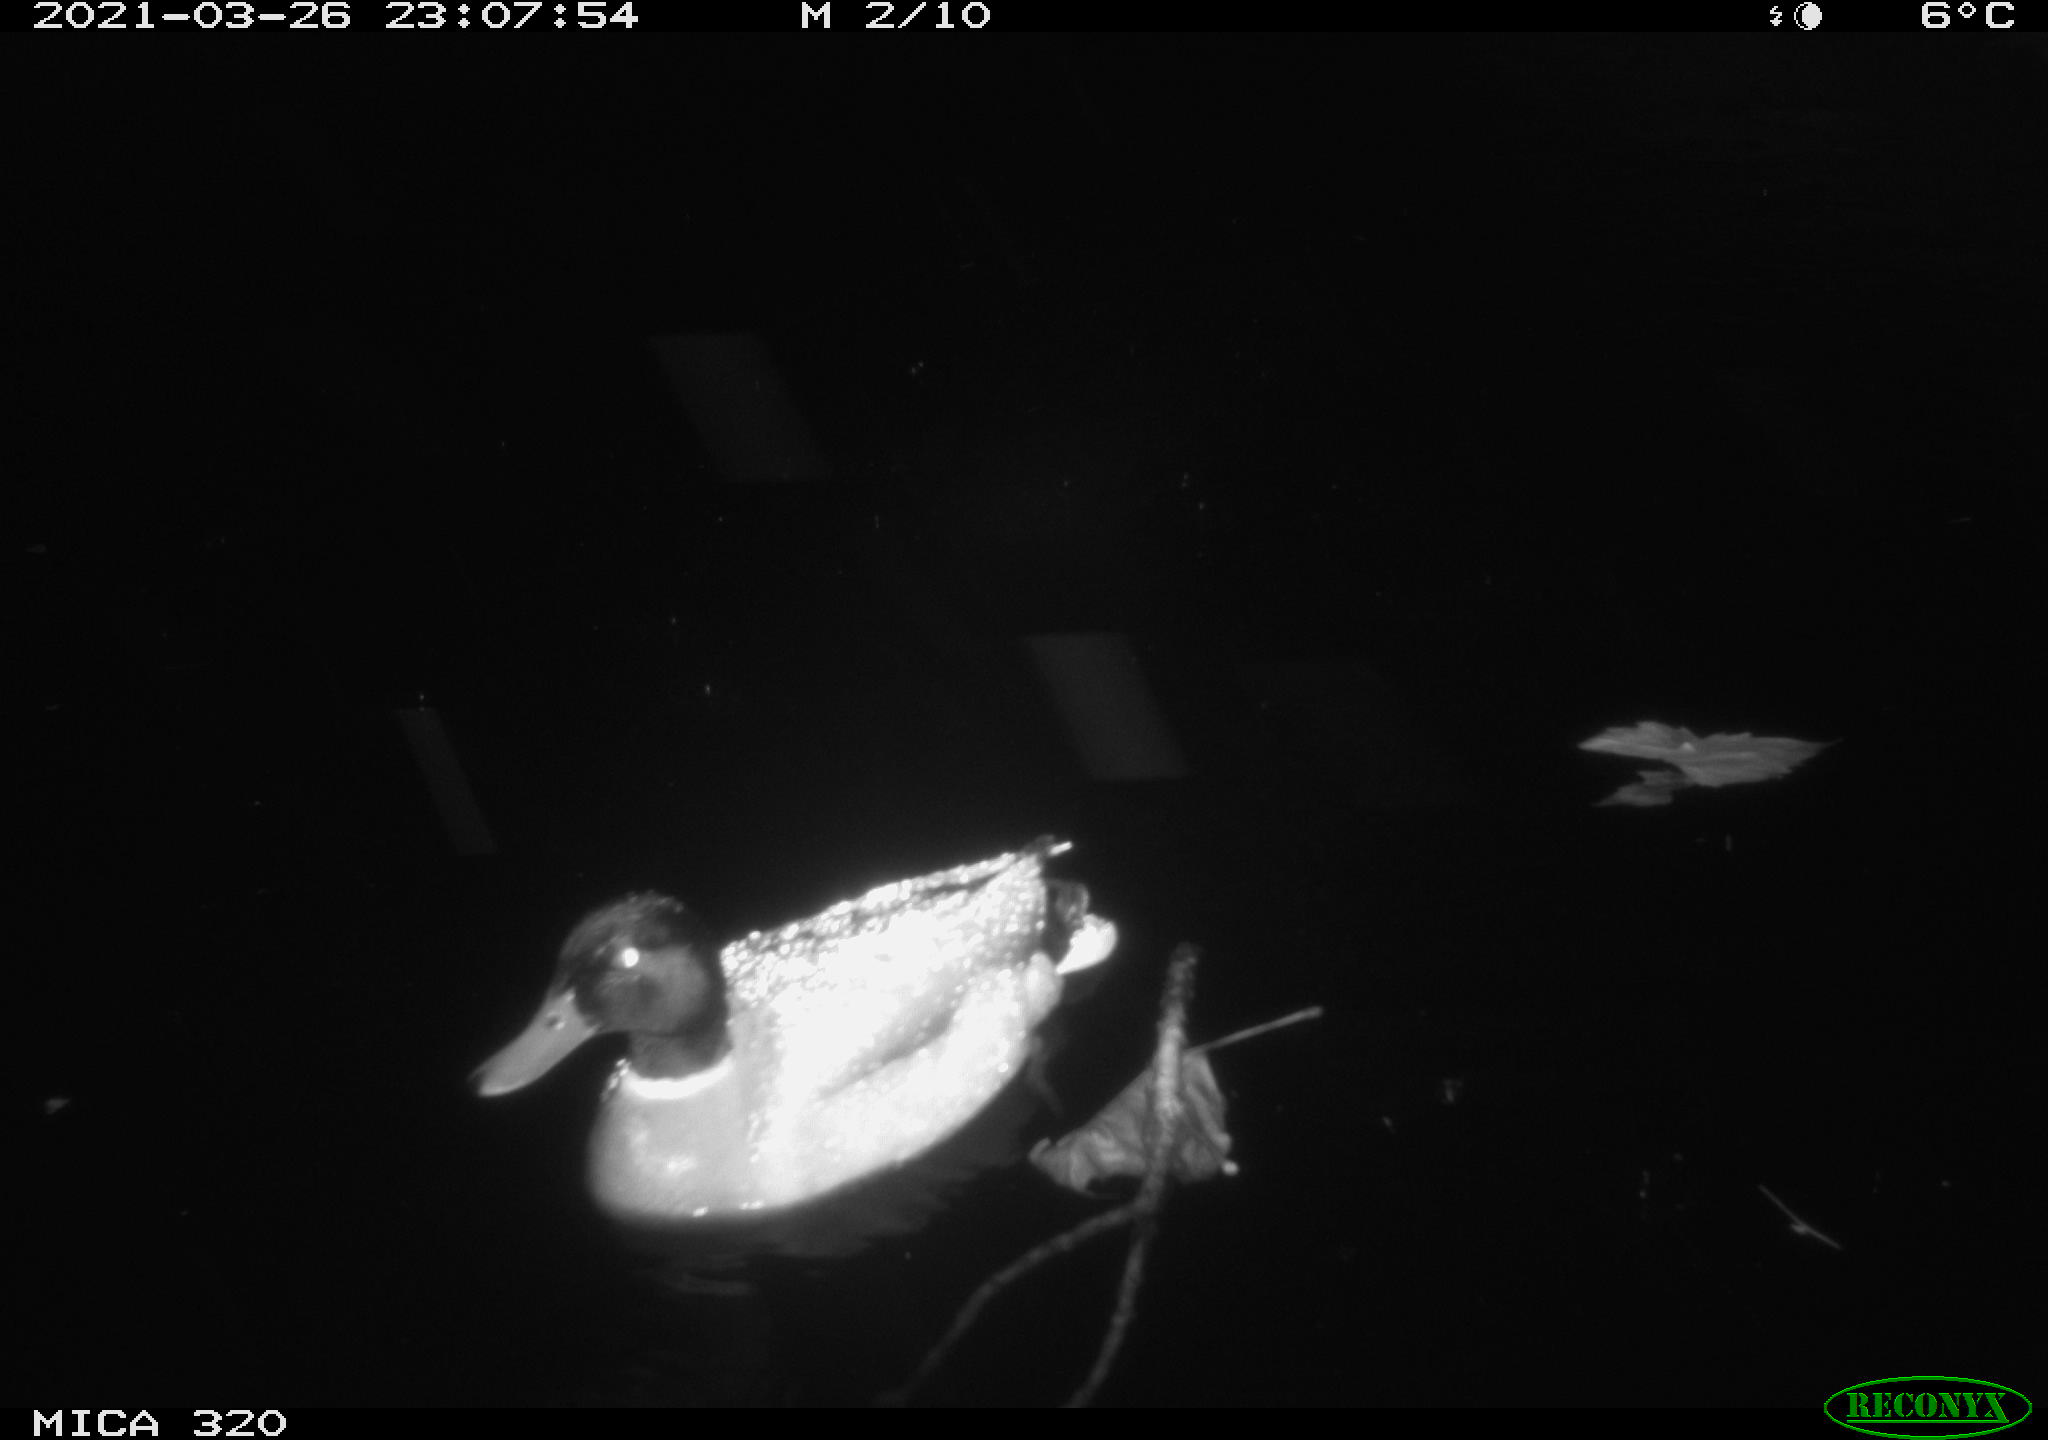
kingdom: Animalia
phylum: Chordata
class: Aves
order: Anseriformes
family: Anatidae
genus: Anas
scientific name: Anas platyrhynchos
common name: Mallard
